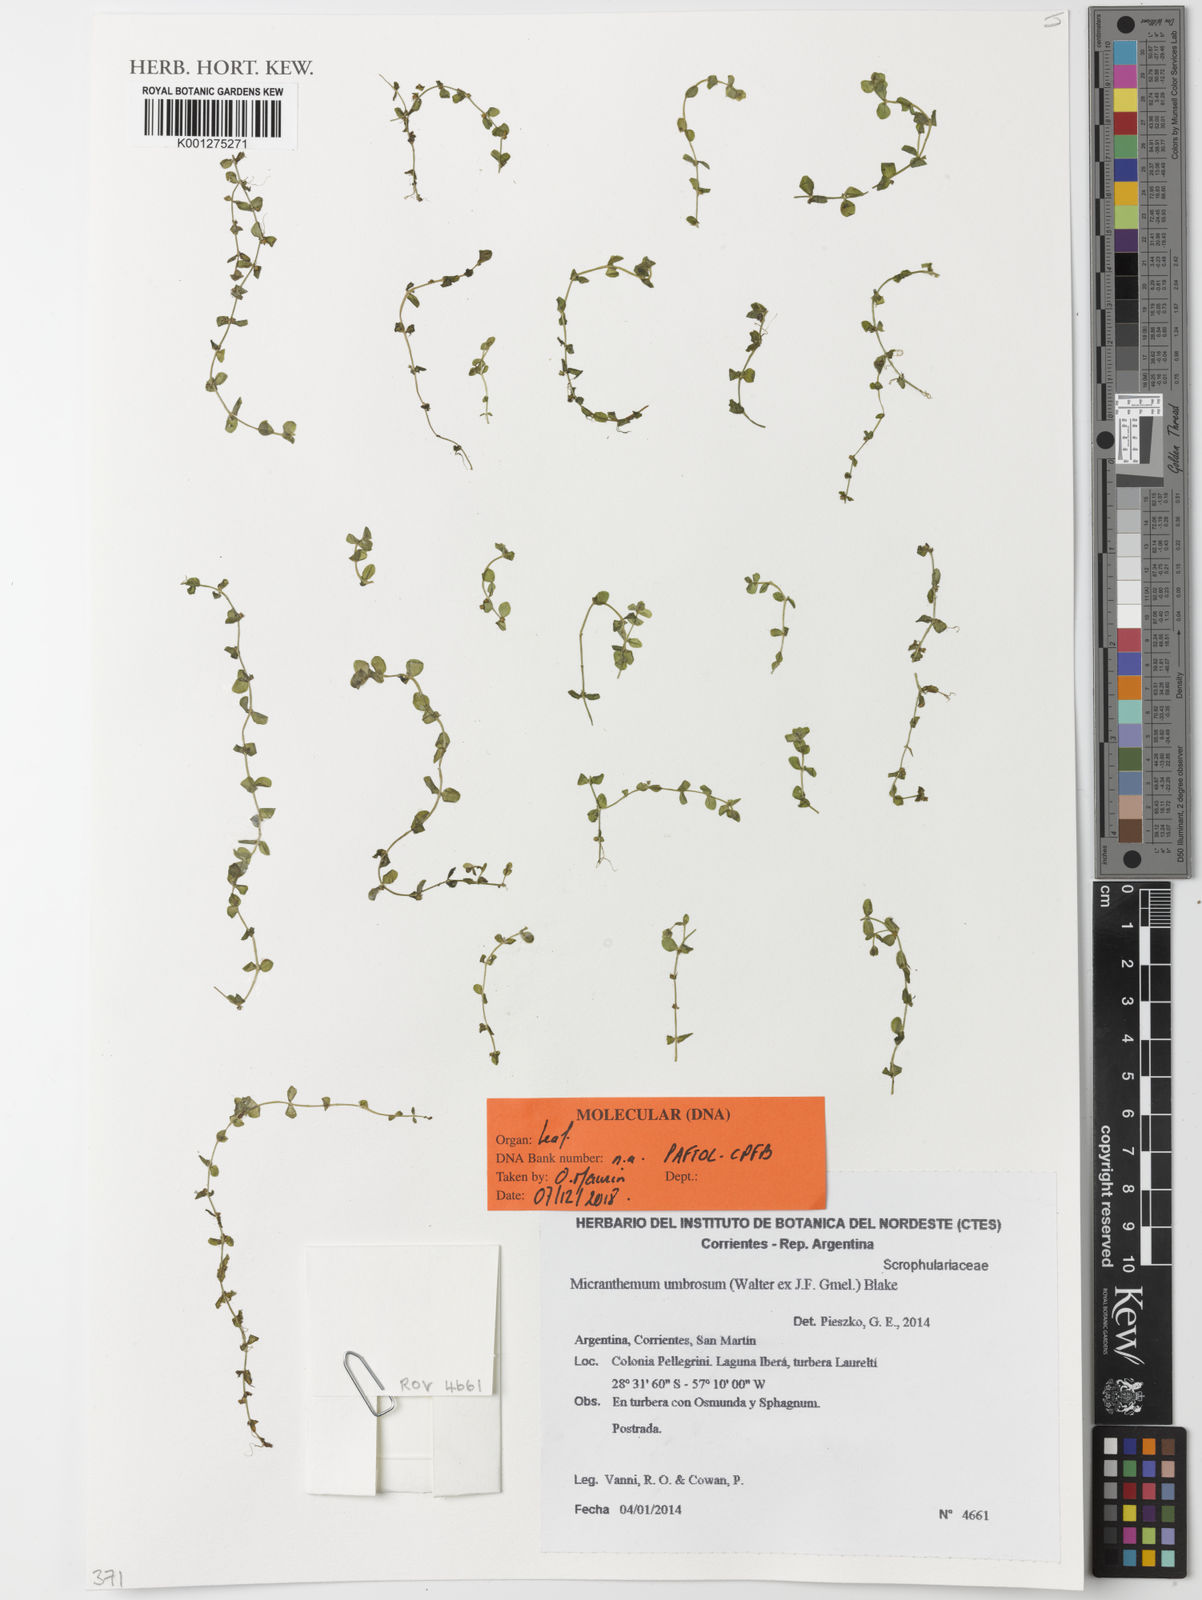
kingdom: Plantae
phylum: Tracheophyta
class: Magnoliopsida
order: Lamiales
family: Linderniaceae
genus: Micranthemum
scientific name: Micranthemum umbrosum
